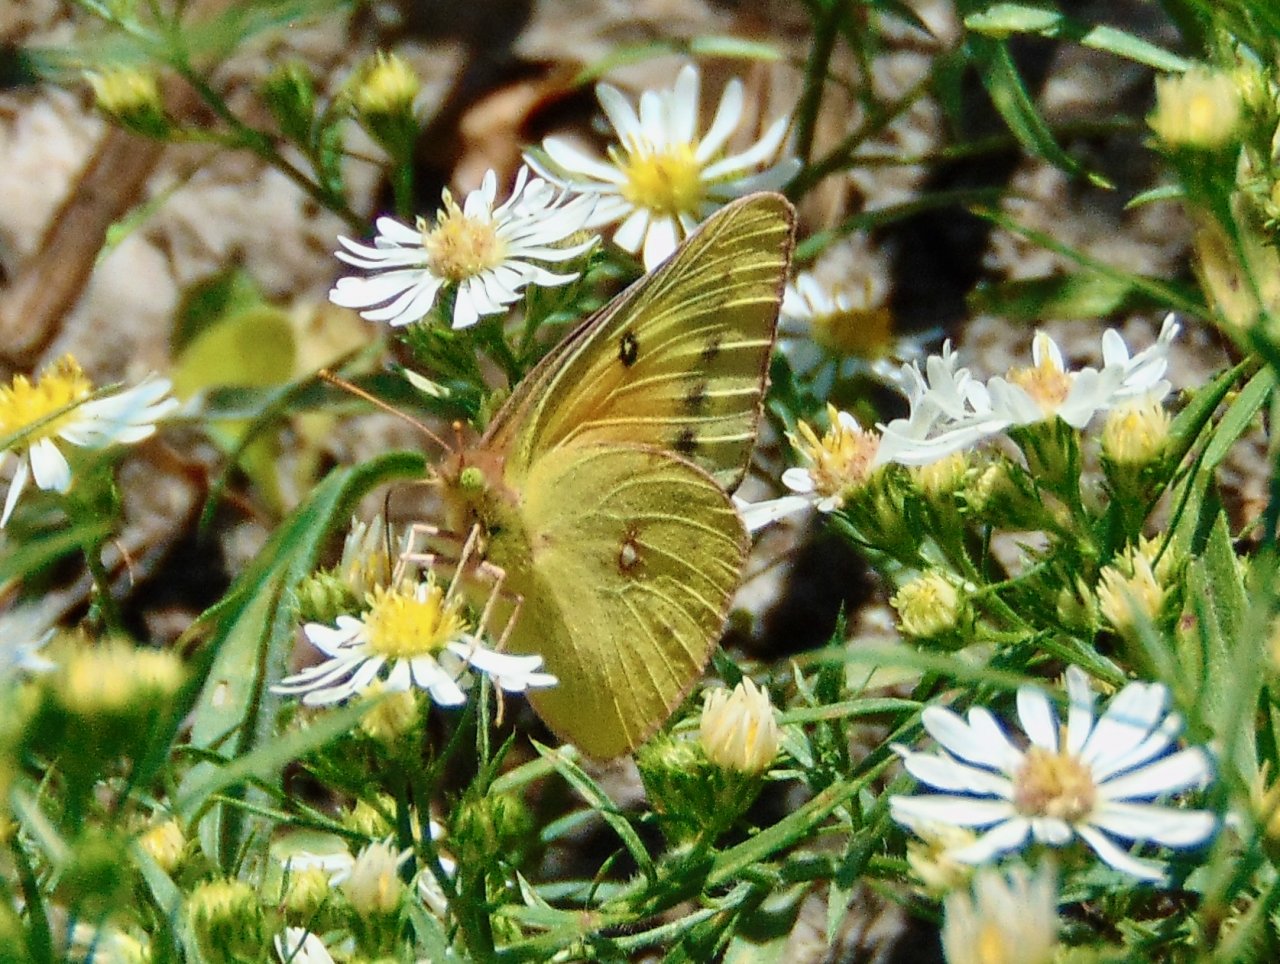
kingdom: Animalia
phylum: Arthropoda
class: Insecta
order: Lepidoptera
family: Pieridae
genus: Colias
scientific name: Colias eurytheme
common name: Orange Sulphur
